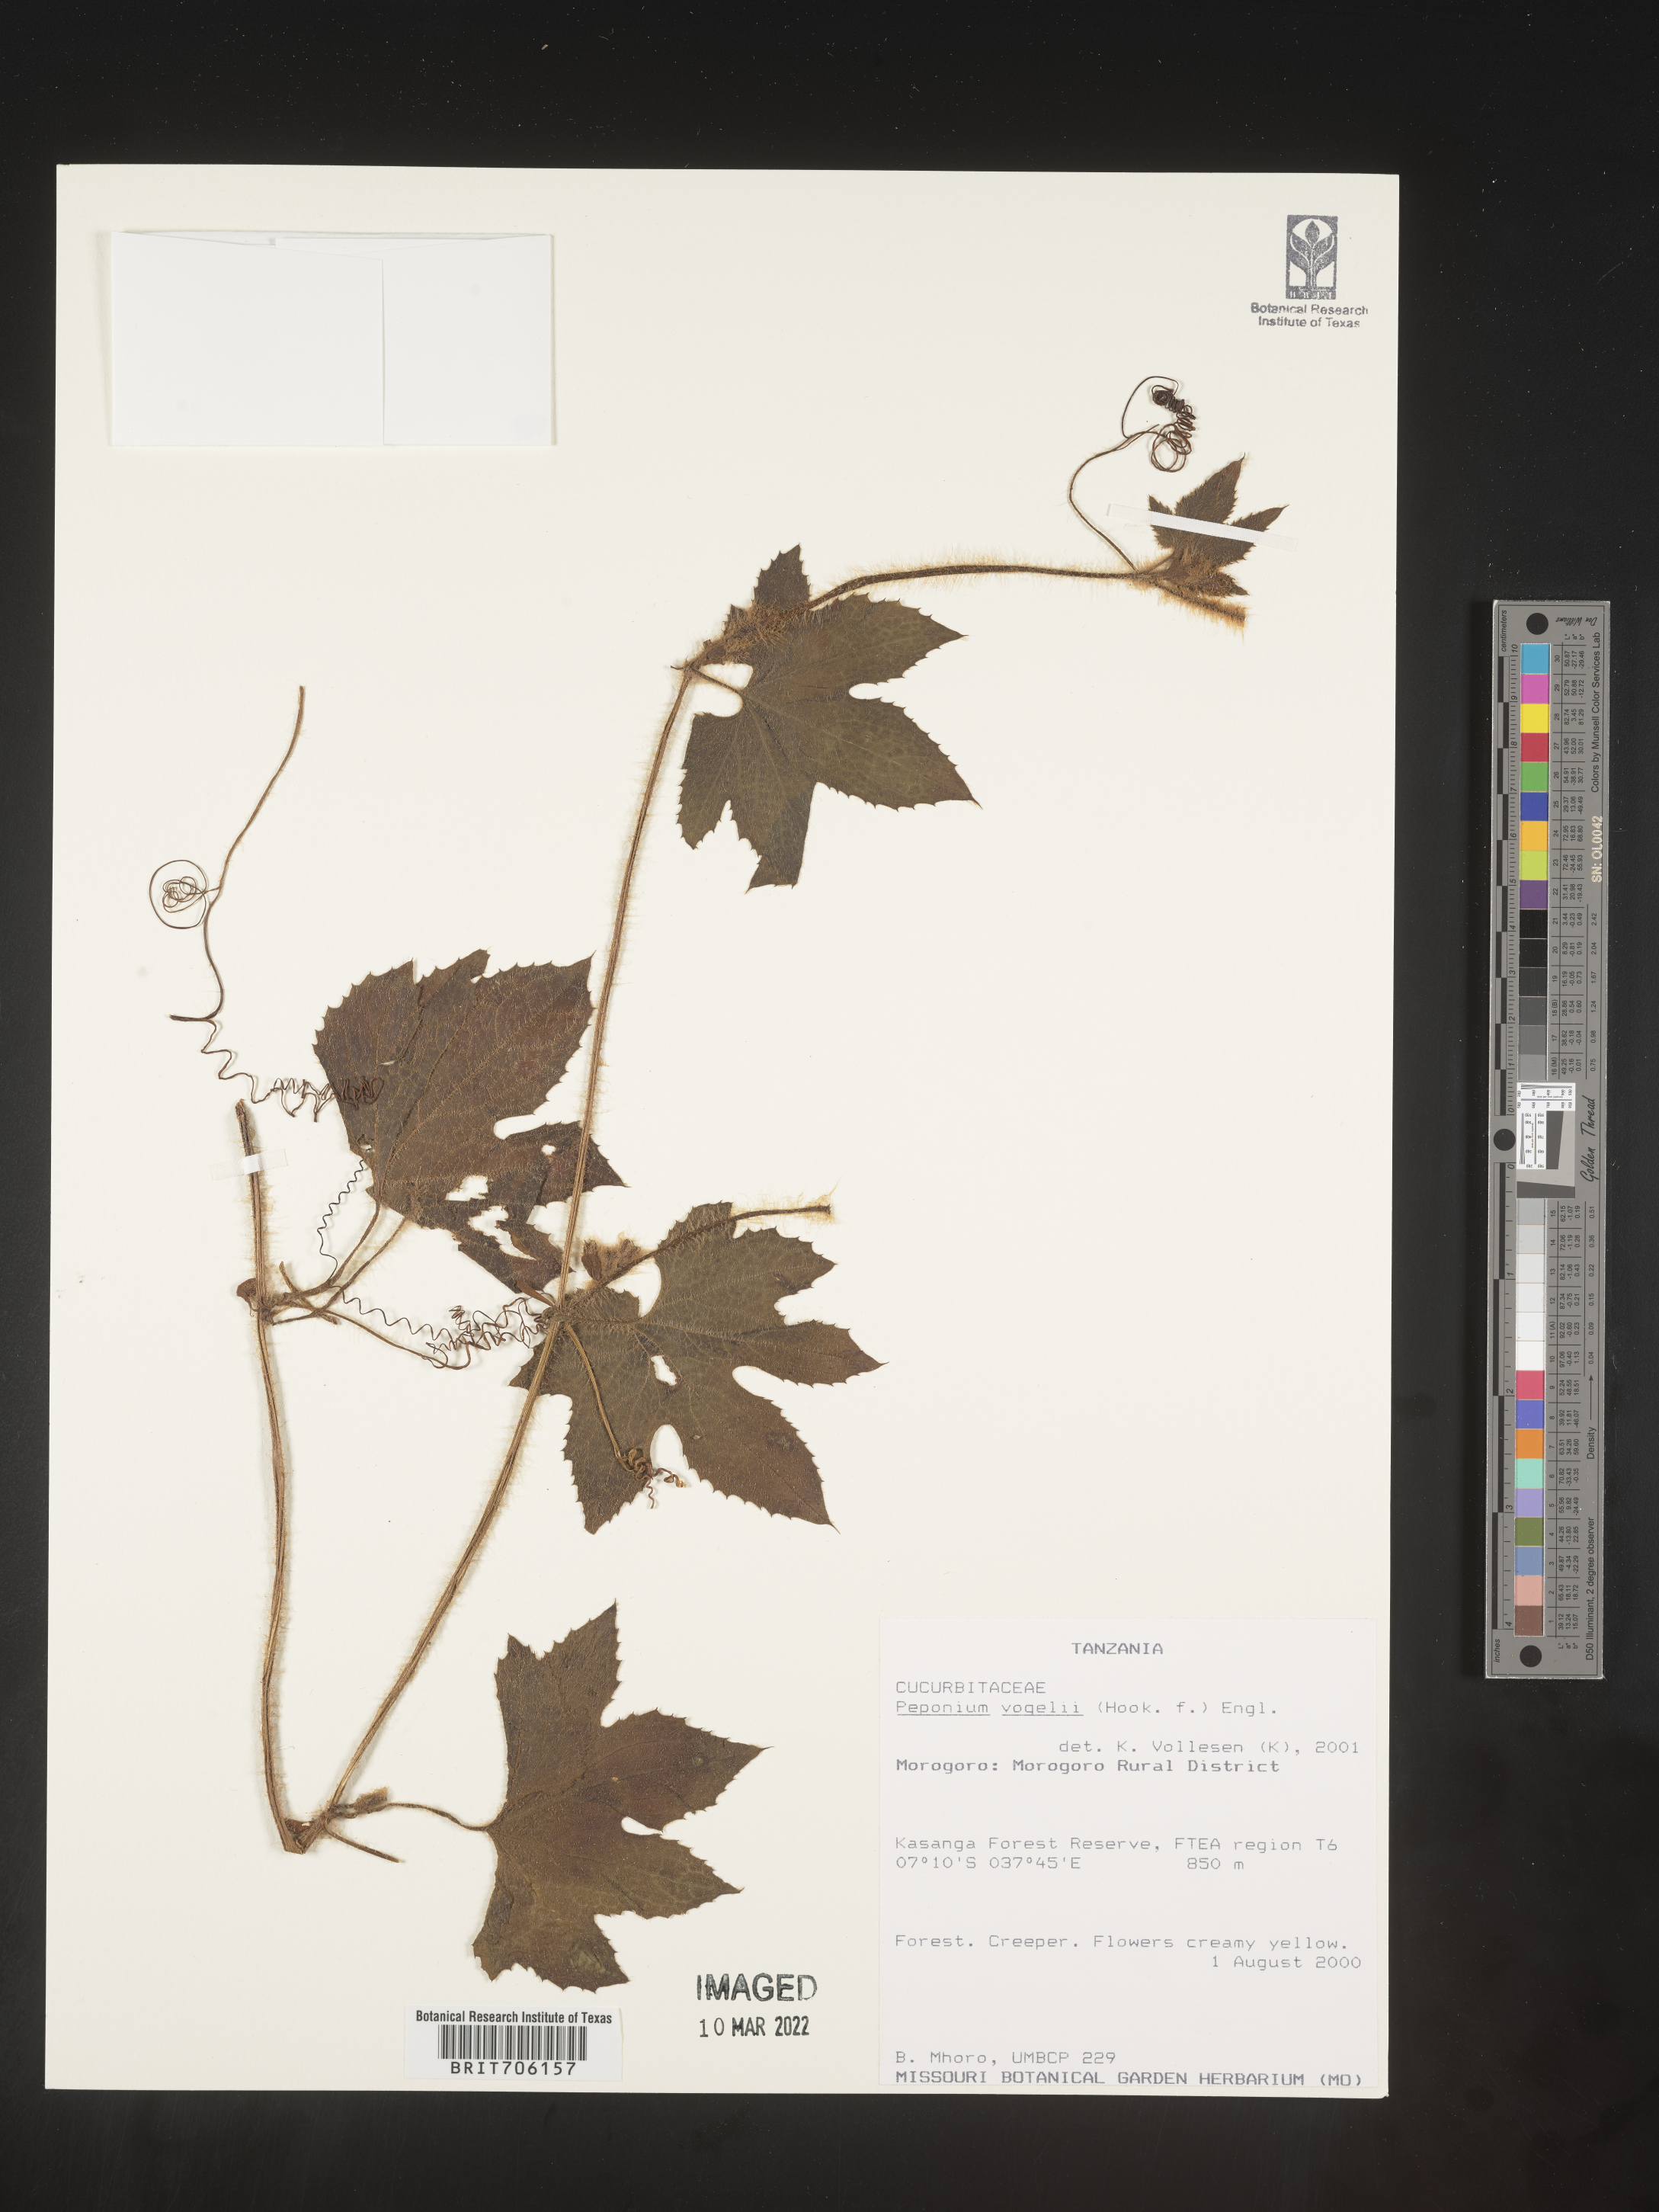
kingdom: Plantae
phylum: Tracheophyta
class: Magnoliopsida
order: Cucurbitales
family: Cucurbitaceae
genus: Peponium
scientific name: Peponium
